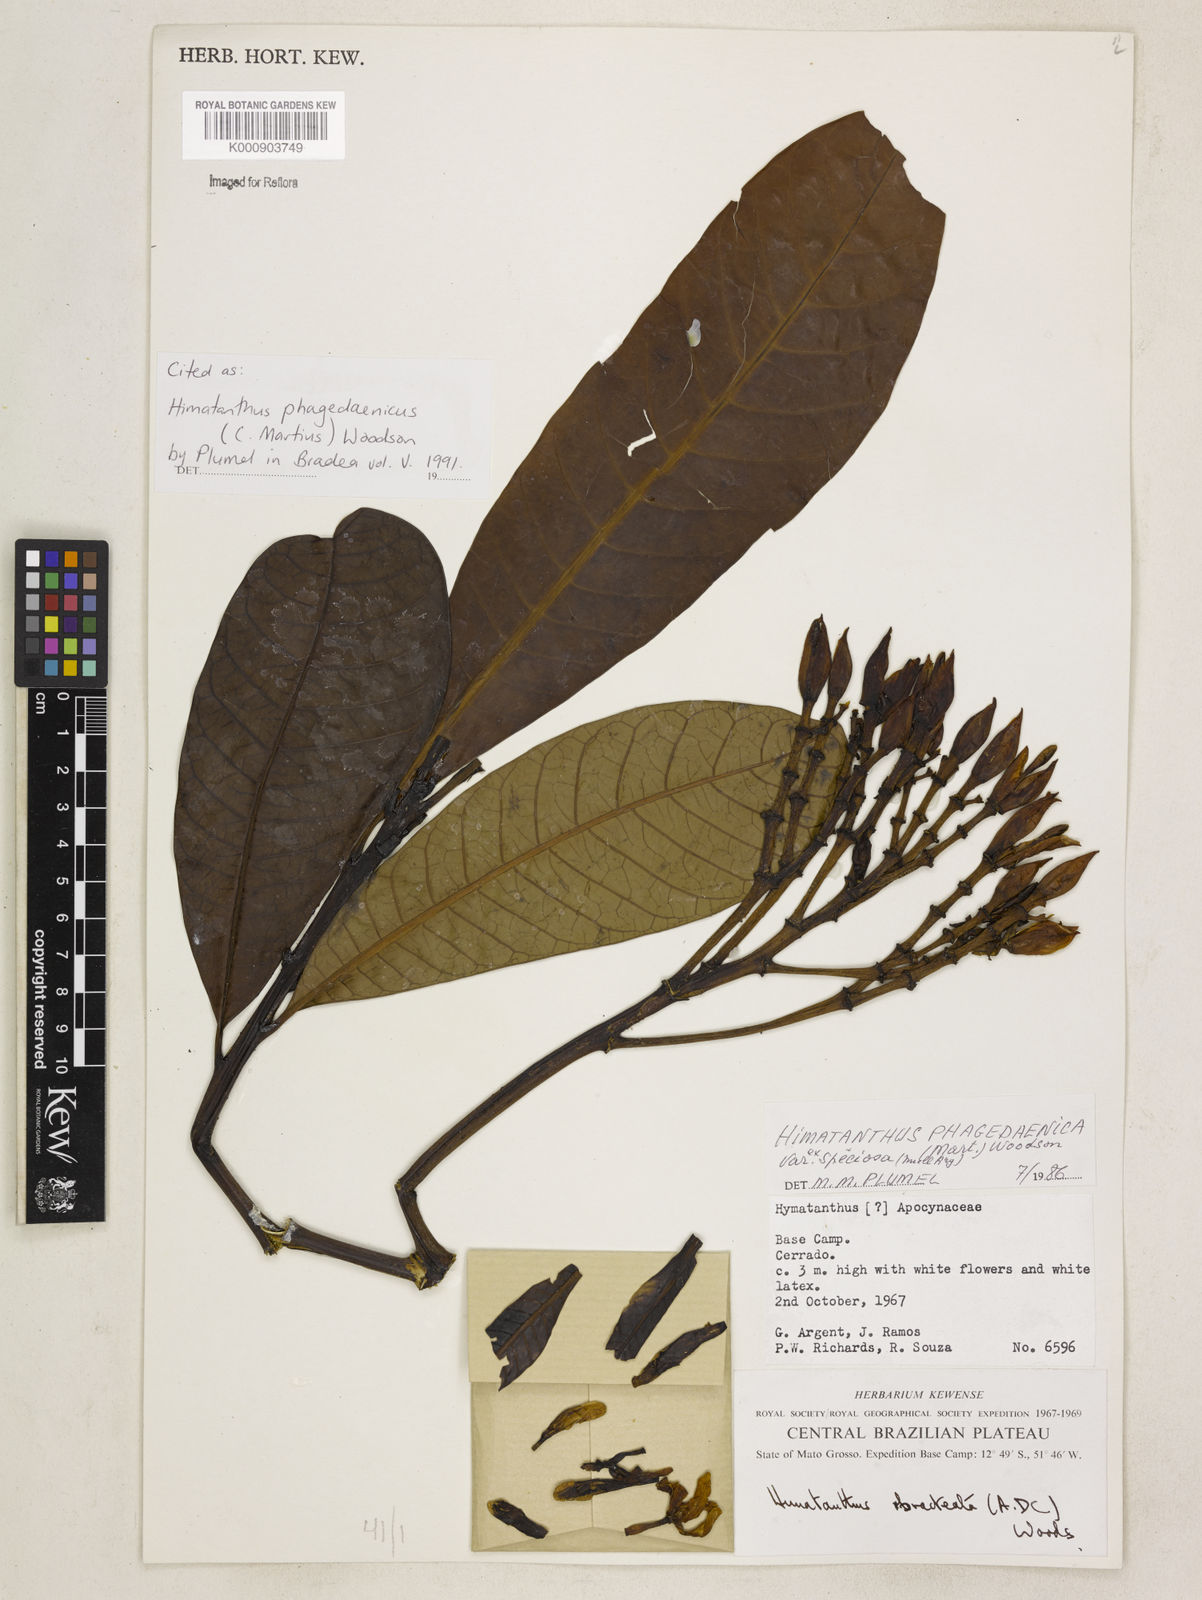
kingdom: Plantae
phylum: Tracheophyta
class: Magnoliopsida
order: Gentianales
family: Apocynaceae
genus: Himatanthus
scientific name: Himatanthus phagedaenicus
